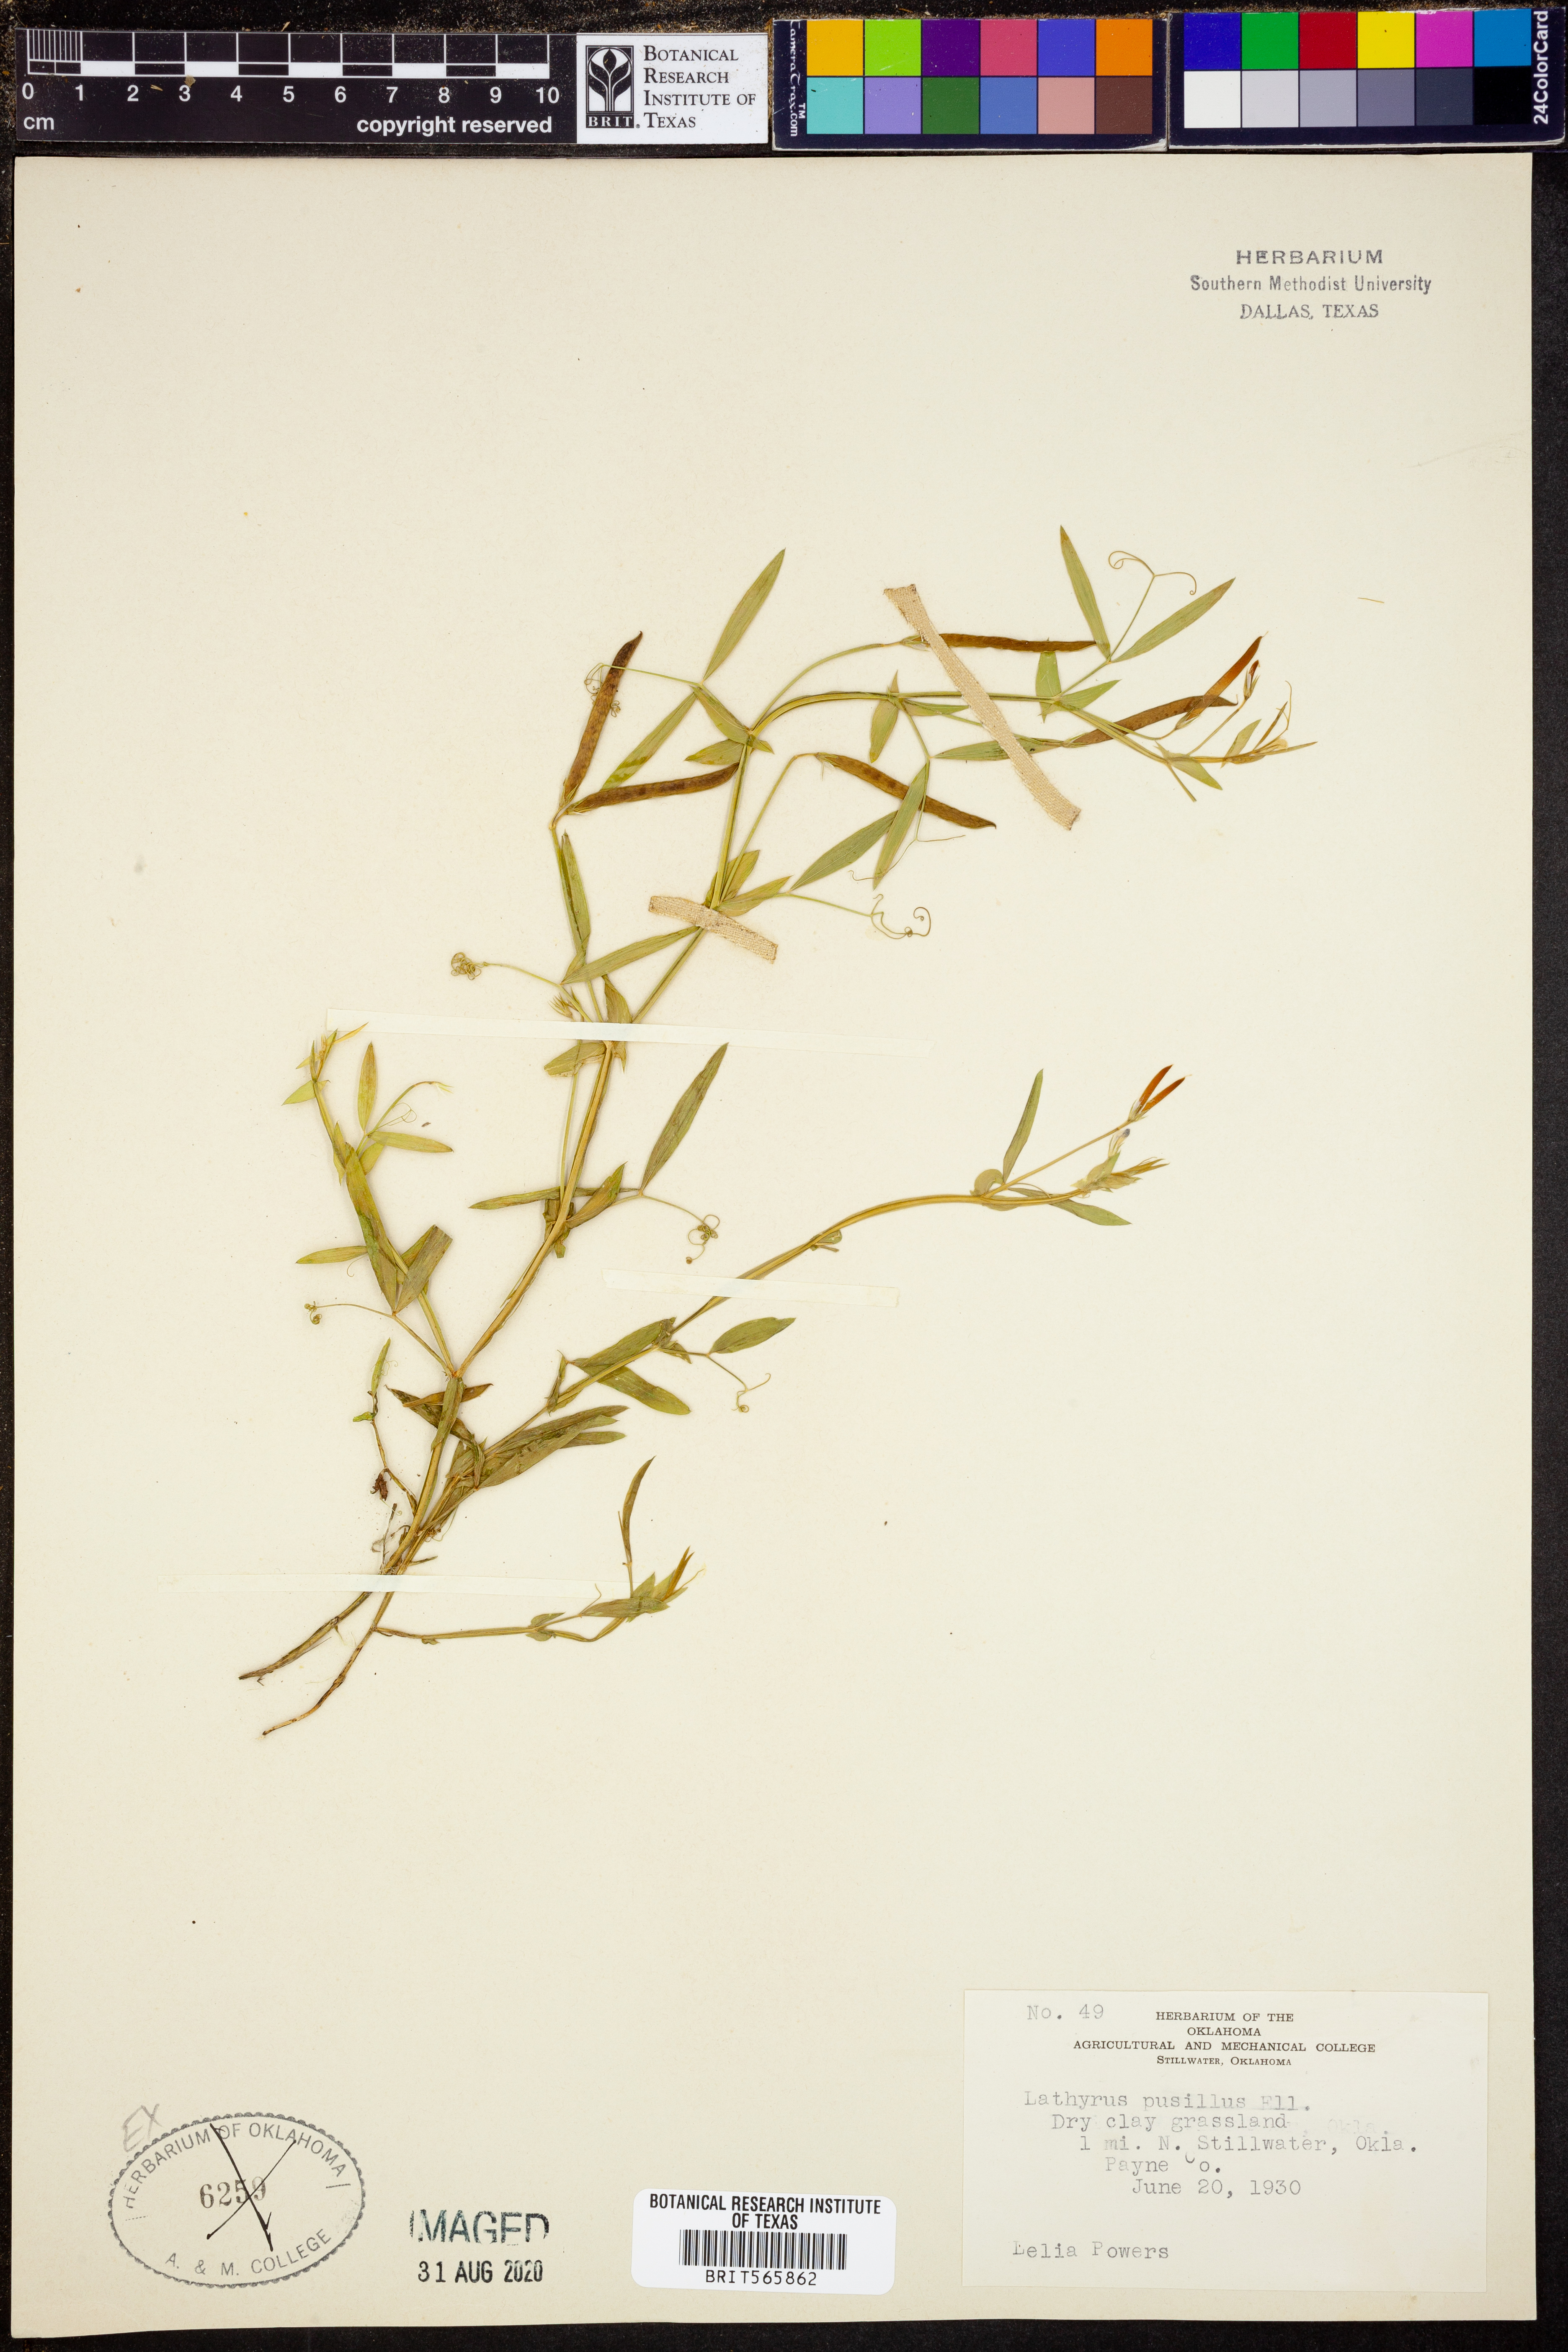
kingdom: Plantae
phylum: Tracheophyta
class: Magnoliopsida
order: Fabales
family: Fabaceae
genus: Lathyrus
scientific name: Lathyrus pusillus
